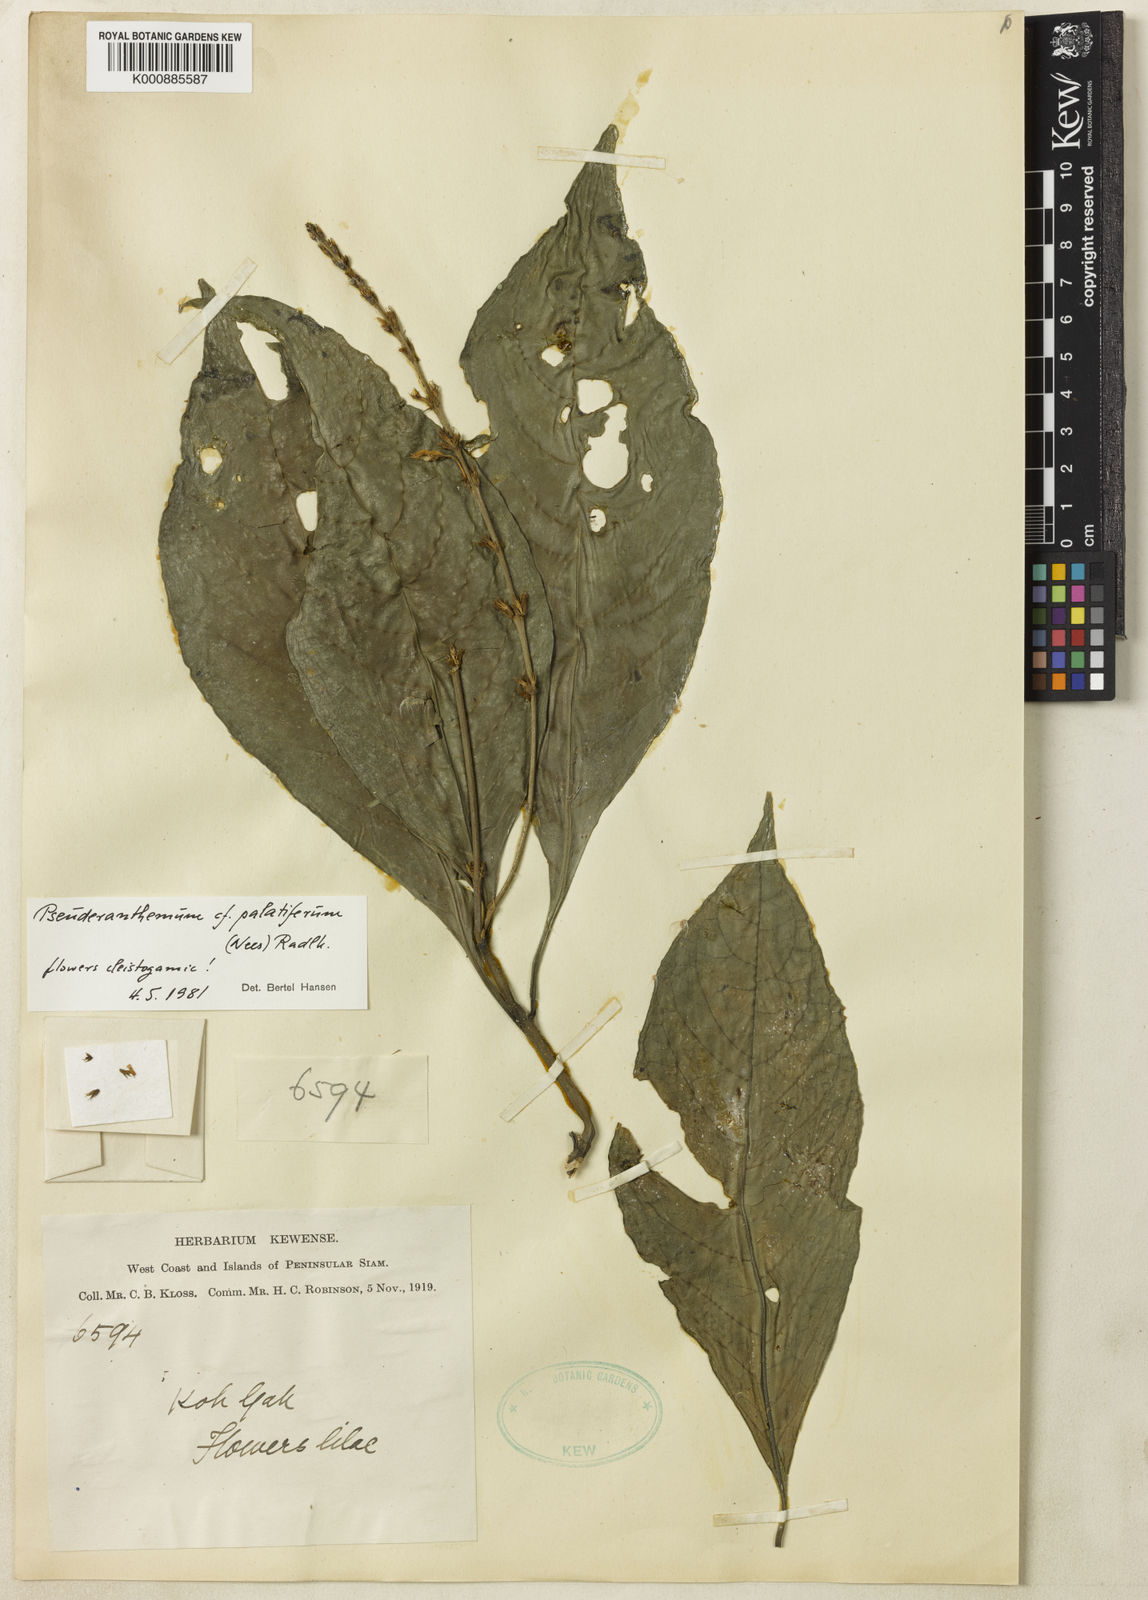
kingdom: Plantae
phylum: Tracheophyta
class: Magnoliopsida
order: Lamiales
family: Acanthaceae
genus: Pseuderanthemum
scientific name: Pseuderanthemum latifolium
